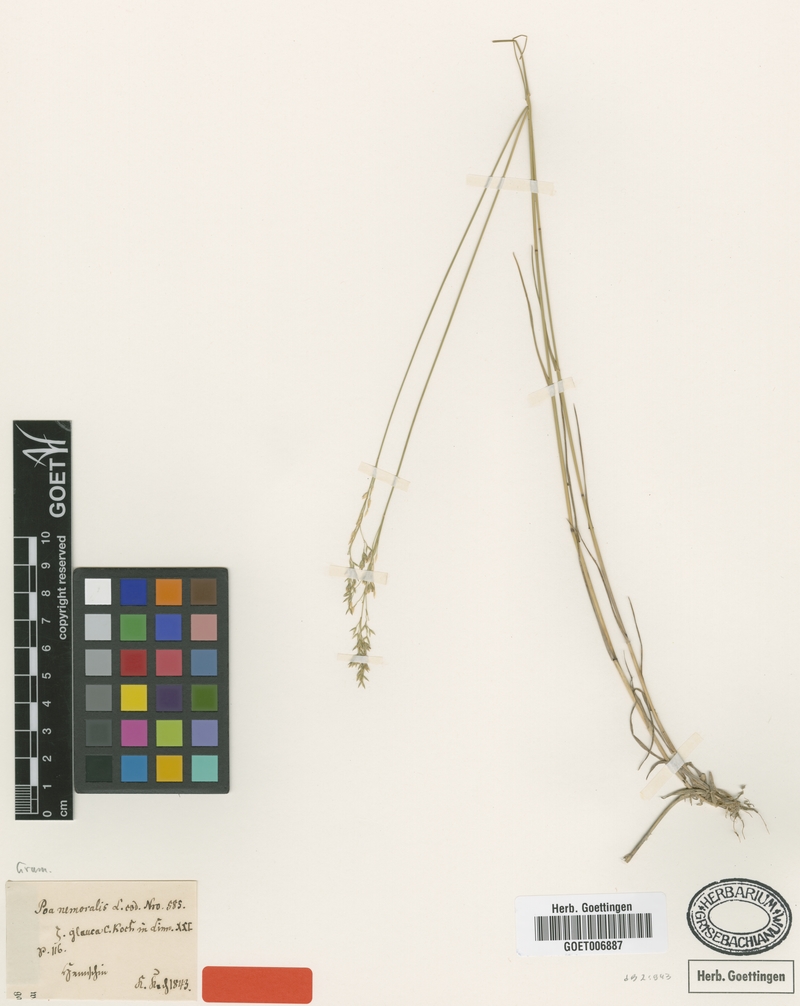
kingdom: Plantae
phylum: Tracheophyta
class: Liliopsida
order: Poales
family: Poaceae
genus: Poa
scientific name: Poa nemoralis
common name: Wood bluegrass
